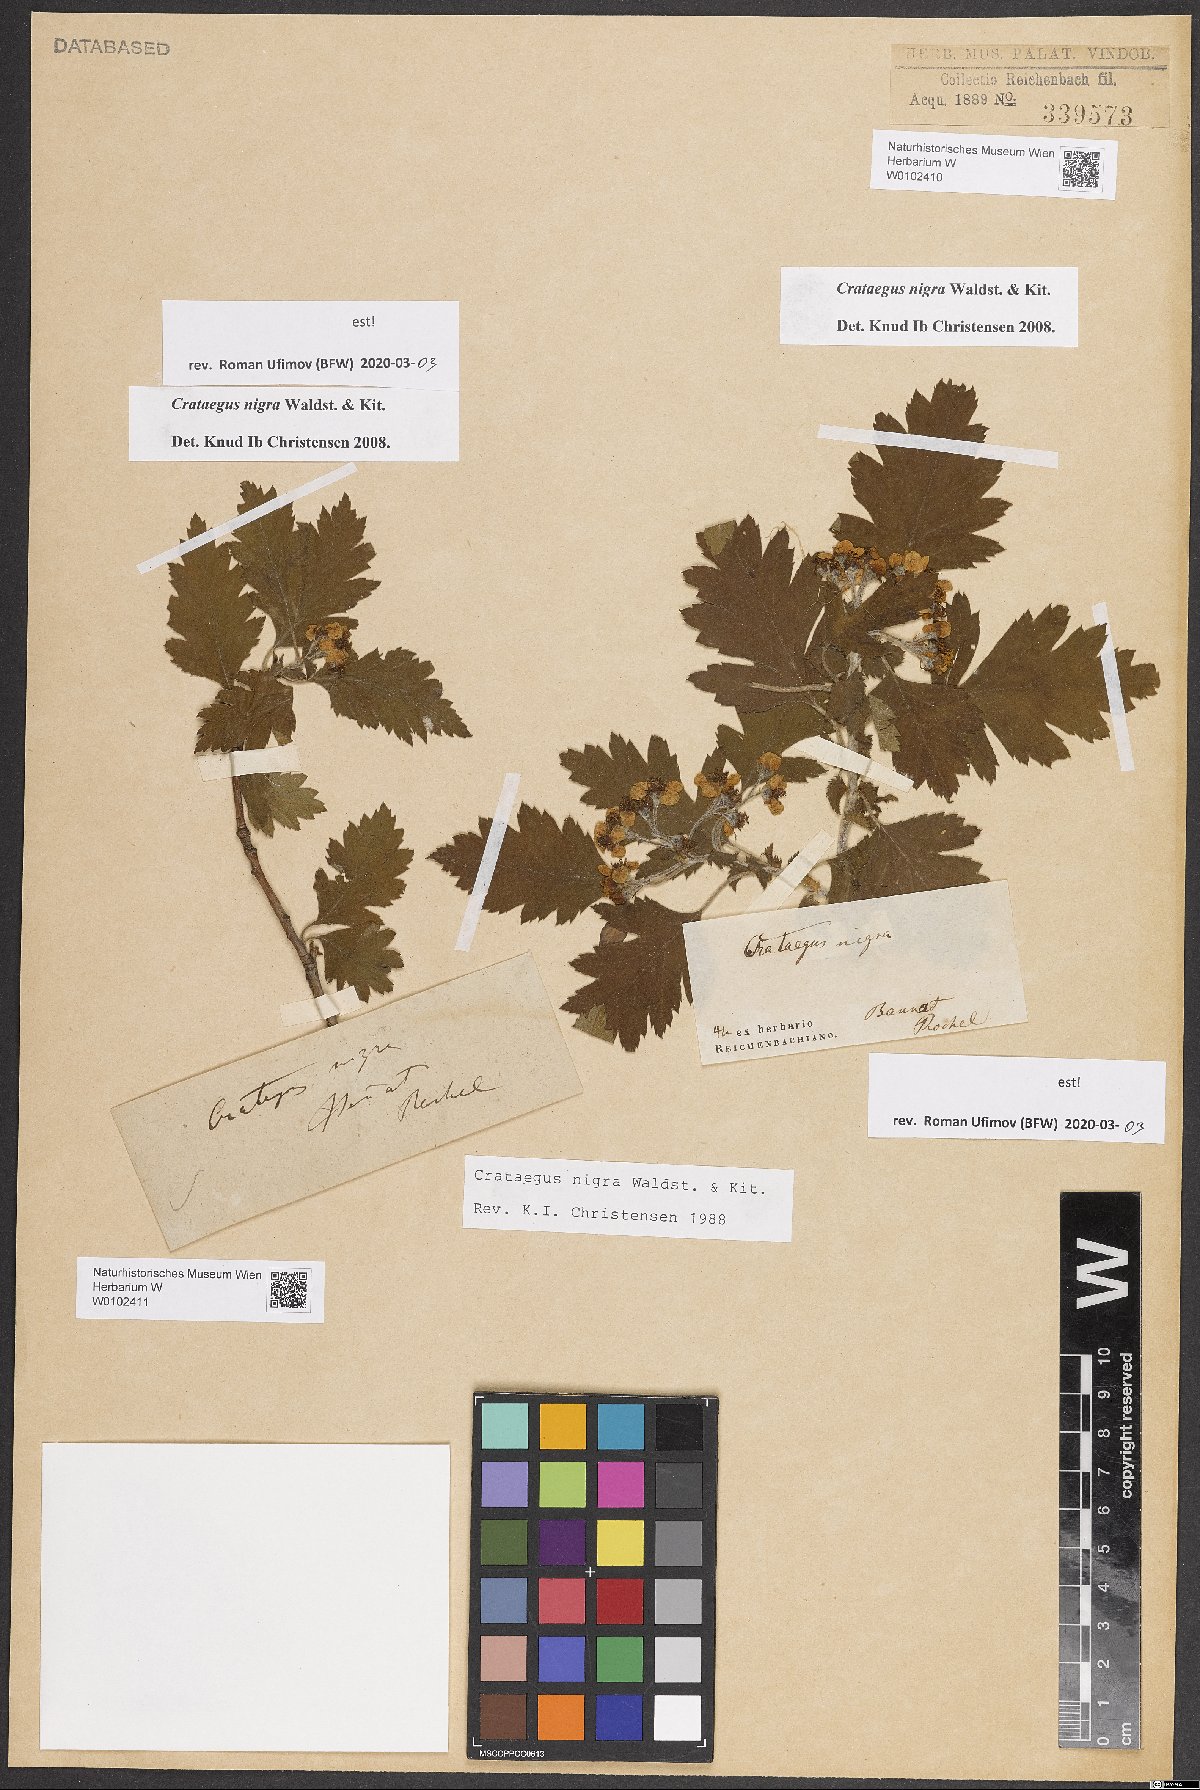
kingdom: Plantae
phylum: Tracheophyta
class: Magnoliopsida
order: Rosales
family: Rosaceae
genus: Crataegus
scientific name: Crataegus nigra
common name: Hungarian thorn
